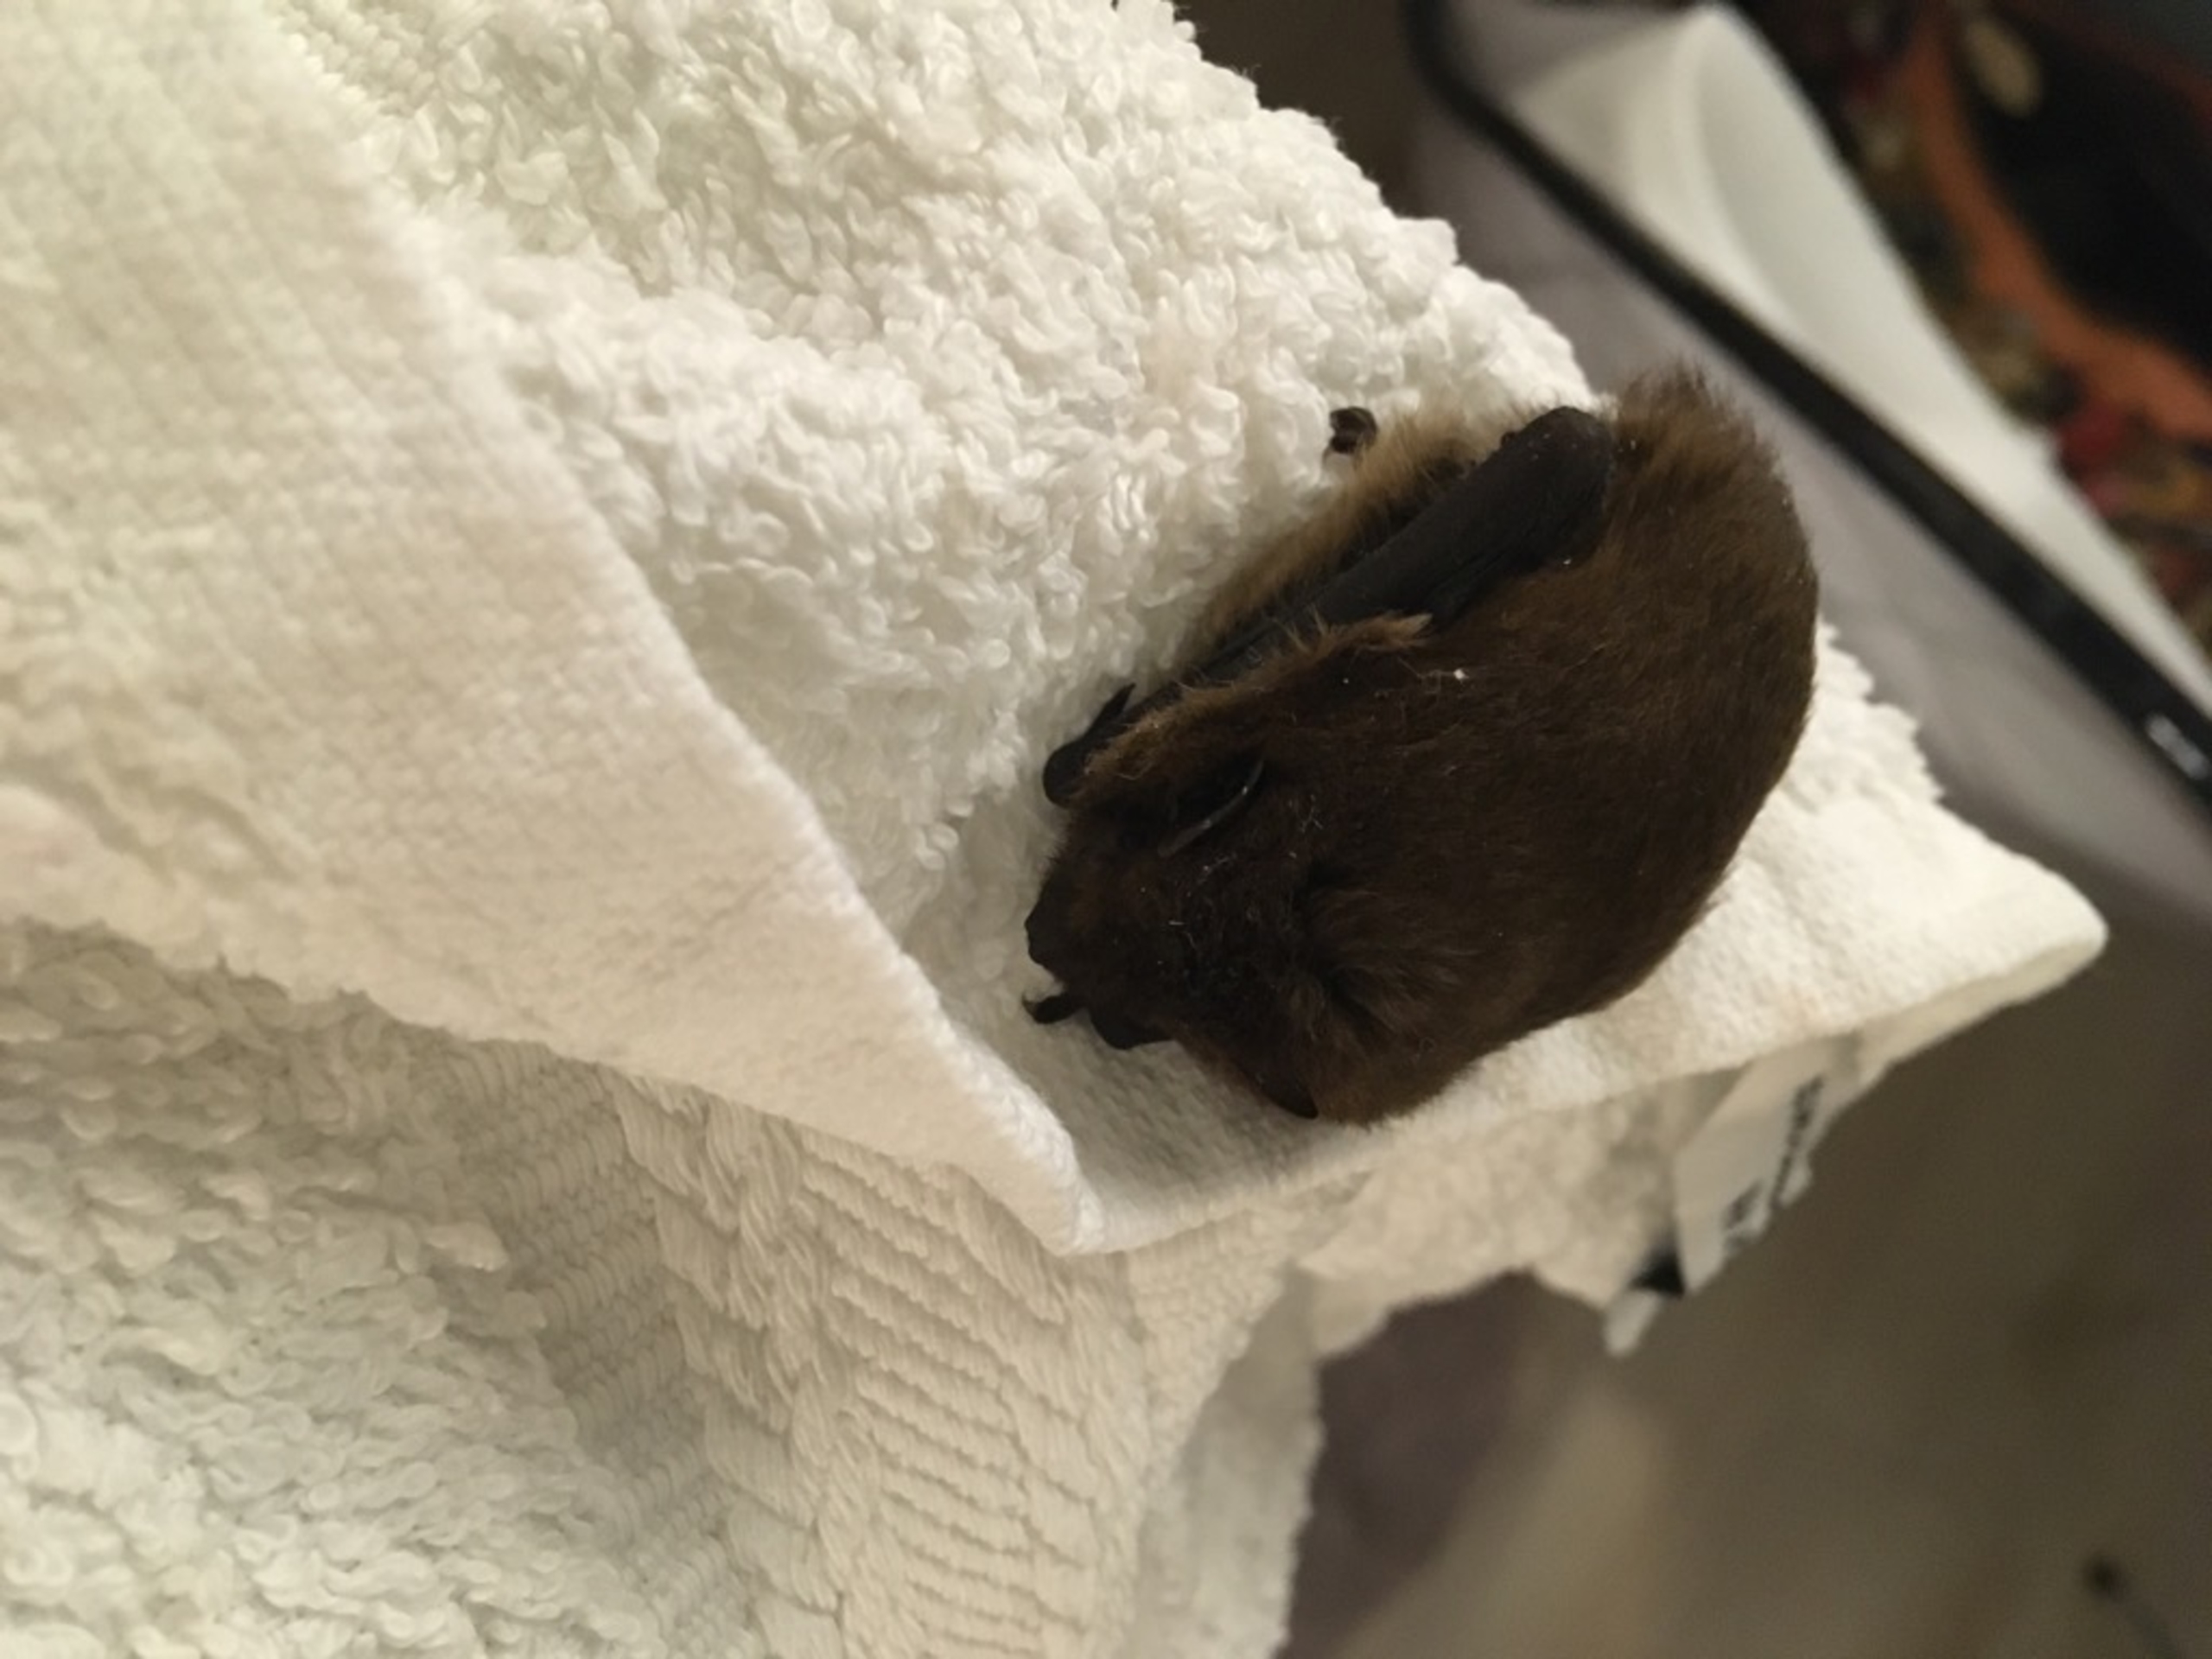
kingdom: Animalia
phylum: Chordata
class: Mammalia
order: Chiroptera
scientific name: Chiroptera
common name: Flagermus
